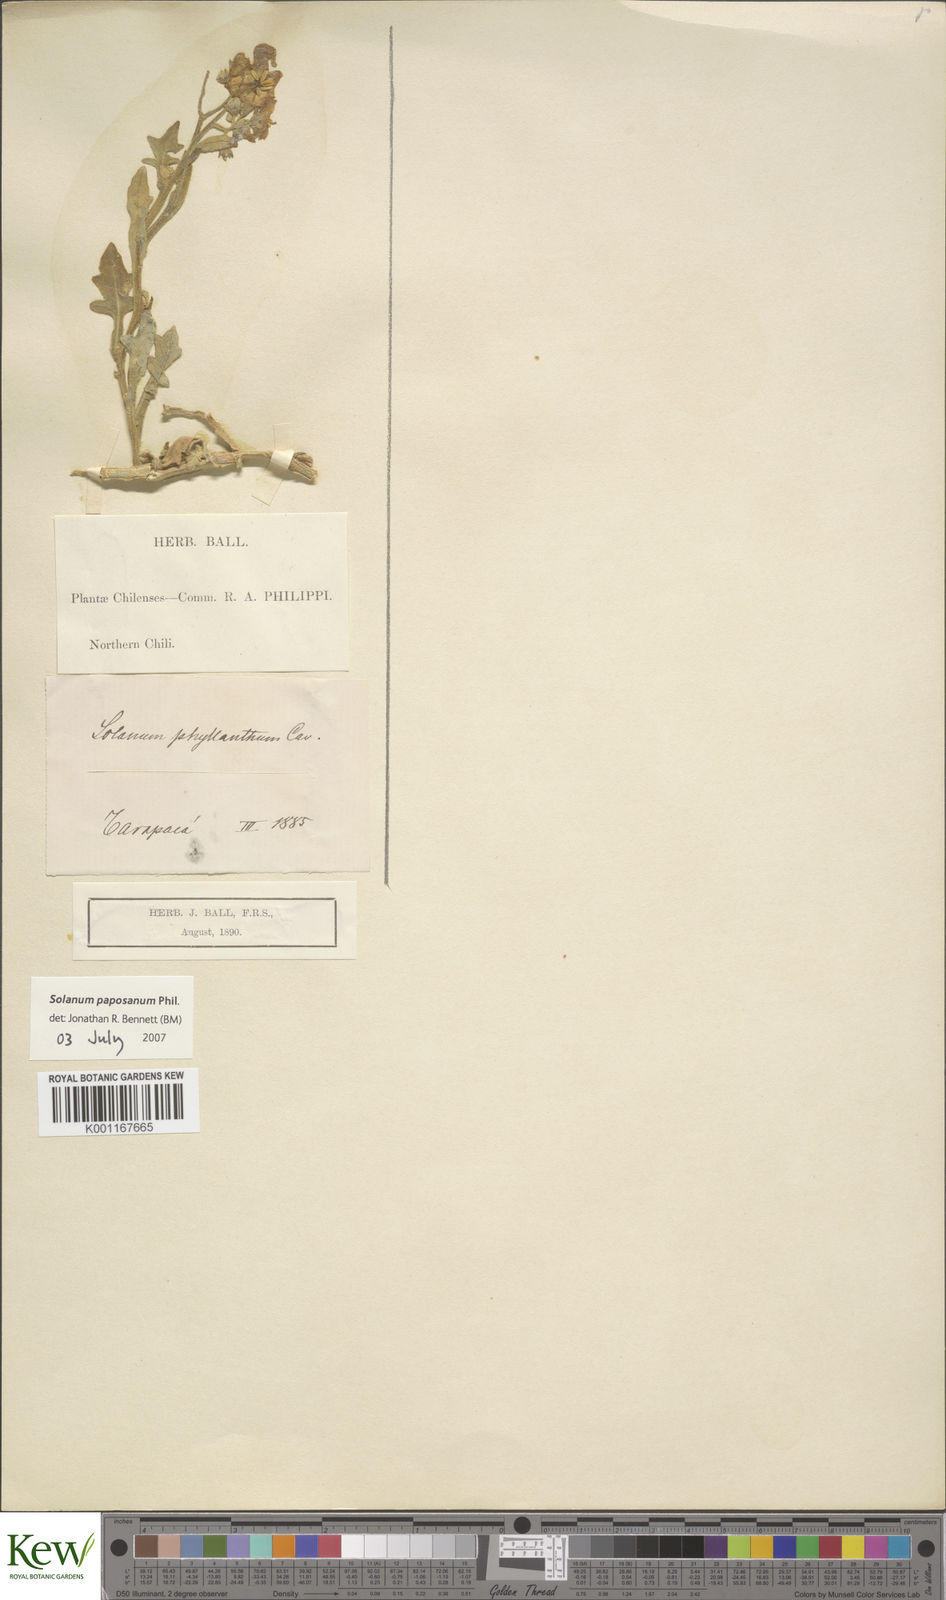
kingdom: Plantae
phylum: Tracheophyta
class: Magnoliopsida
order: Solanales
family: Solanaceae
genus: Solanum
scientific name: Solanum paposanum
